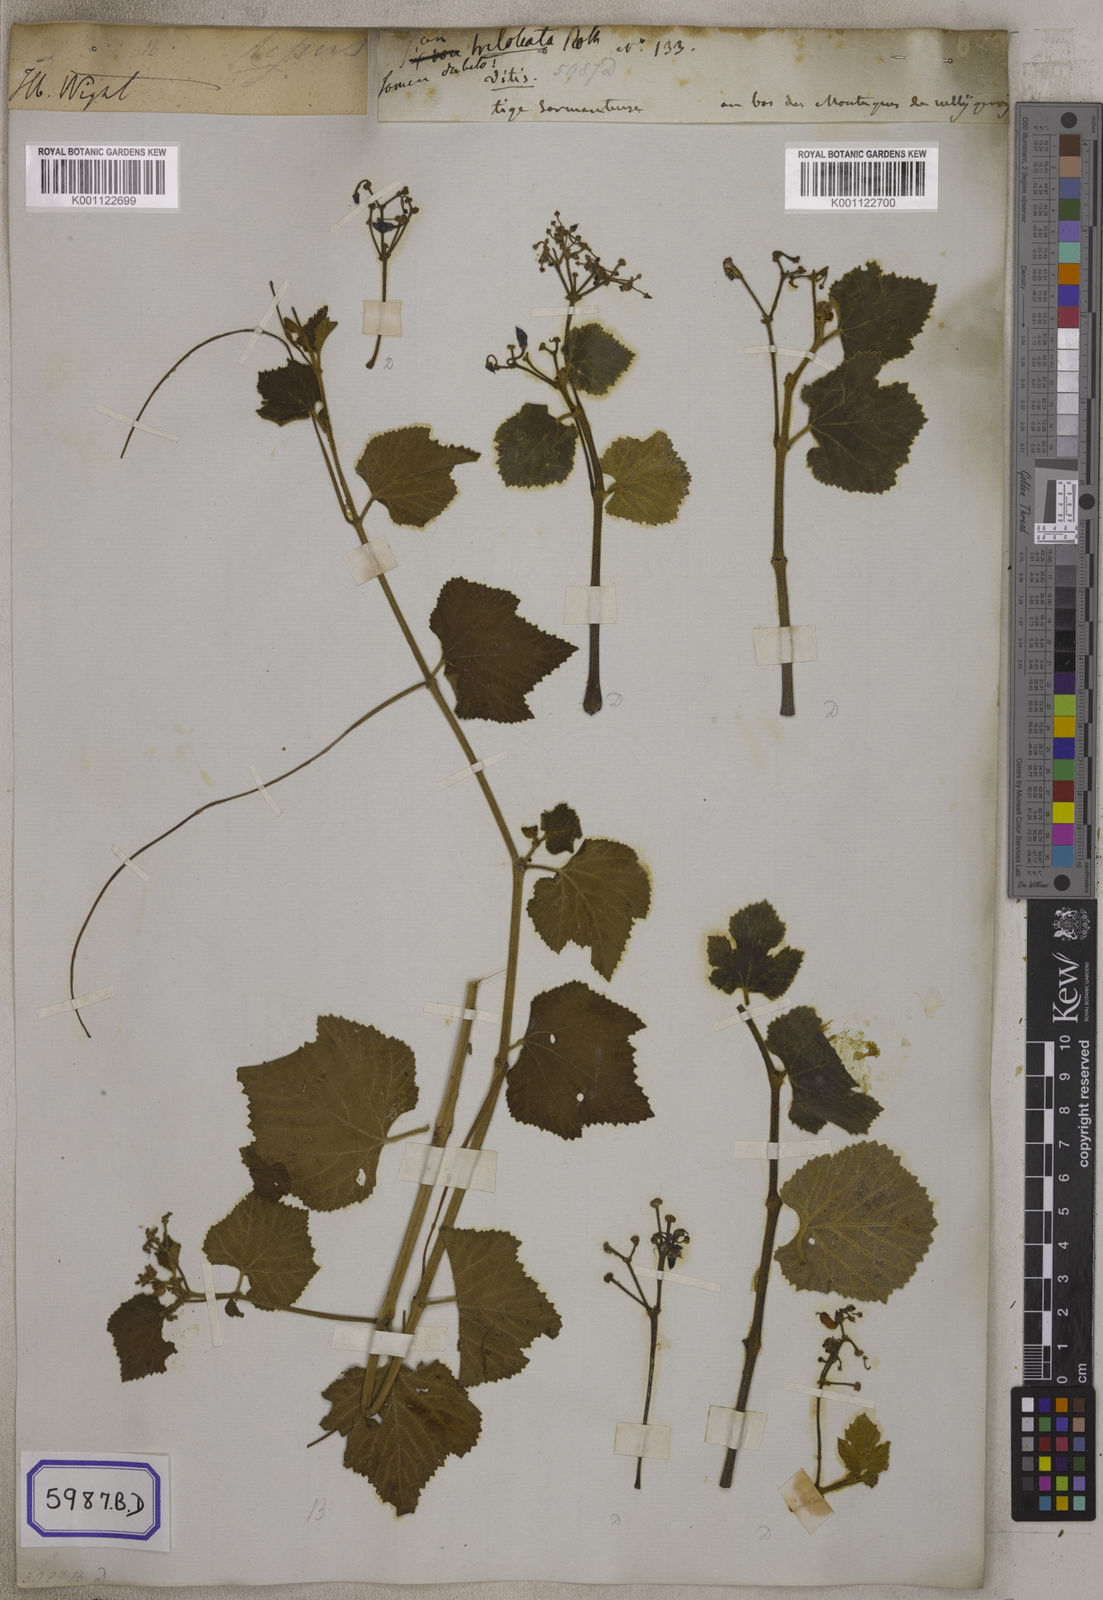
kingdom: Plantae
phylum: Tracheophyta
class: Magnoliopsida
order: Vitales
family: Vitaceae
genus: Vitis
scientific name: Vitis
